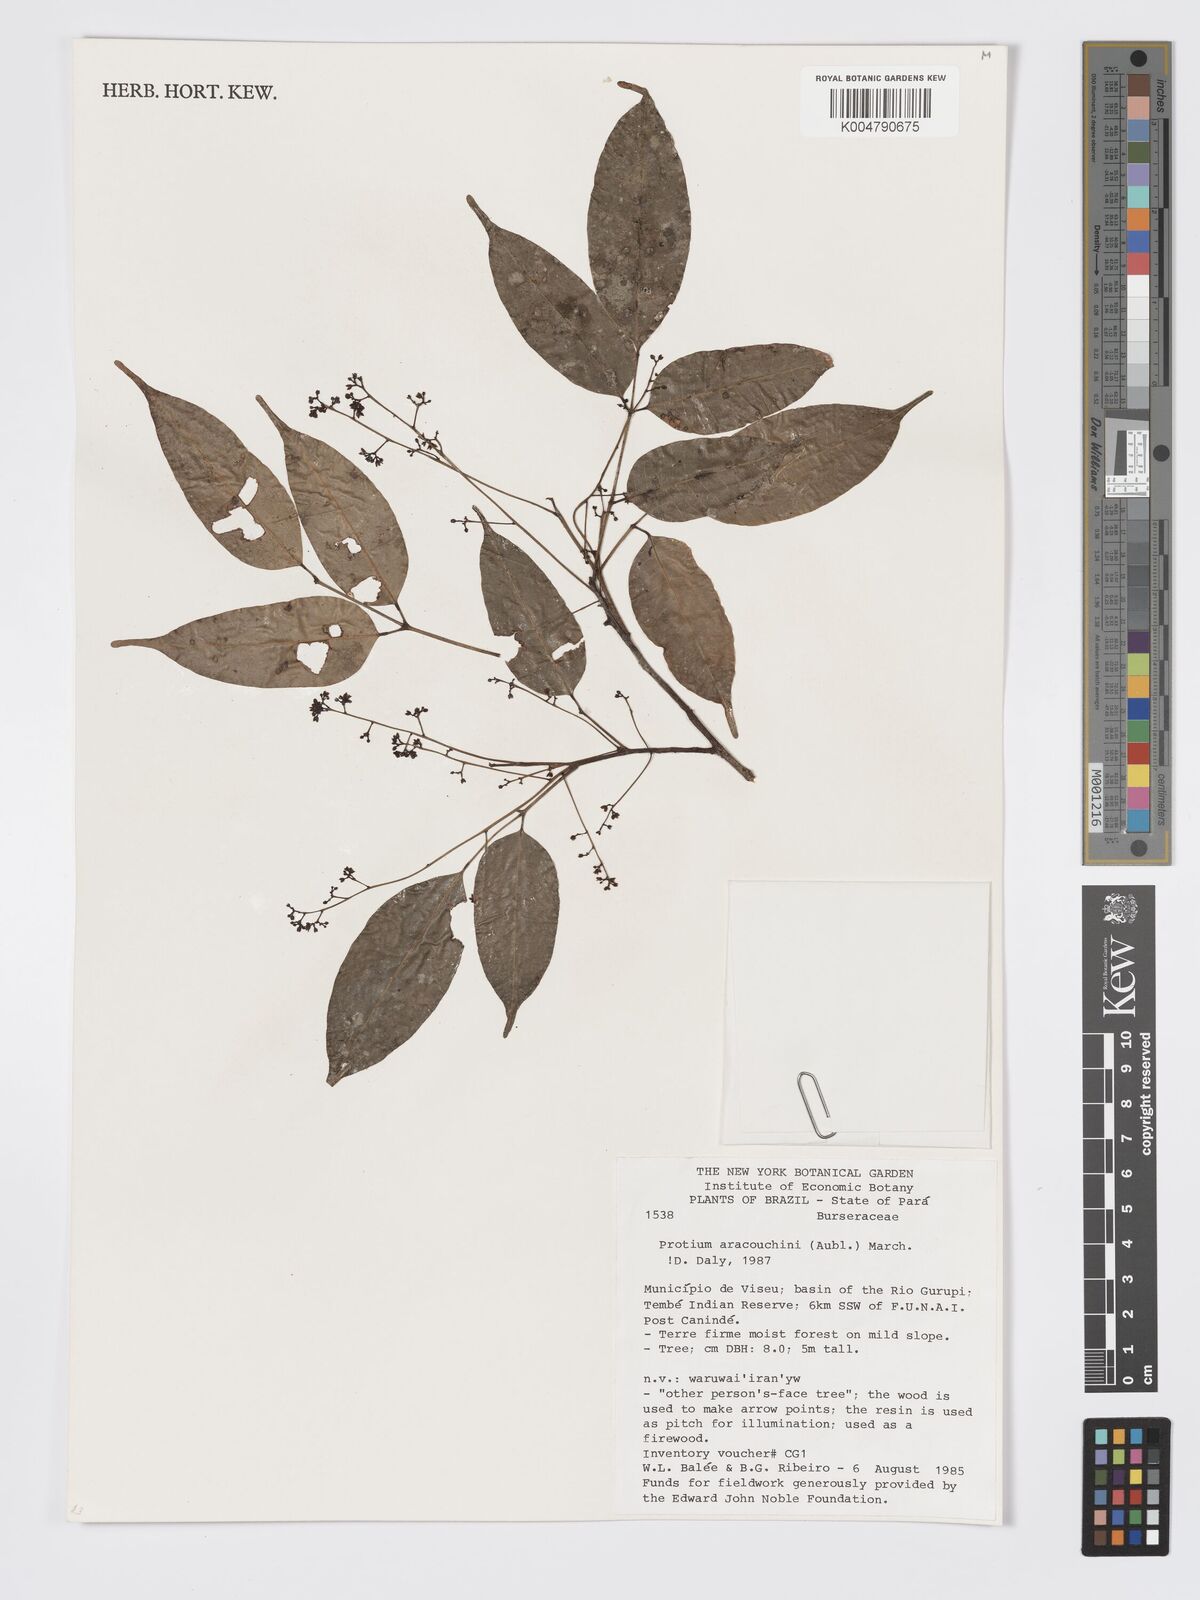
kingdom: Plantae
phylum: Tracheophyta
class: Magnoliopsida
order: Sapindales
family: Burseraceae
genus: Protium
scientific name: Protium aracouchini
